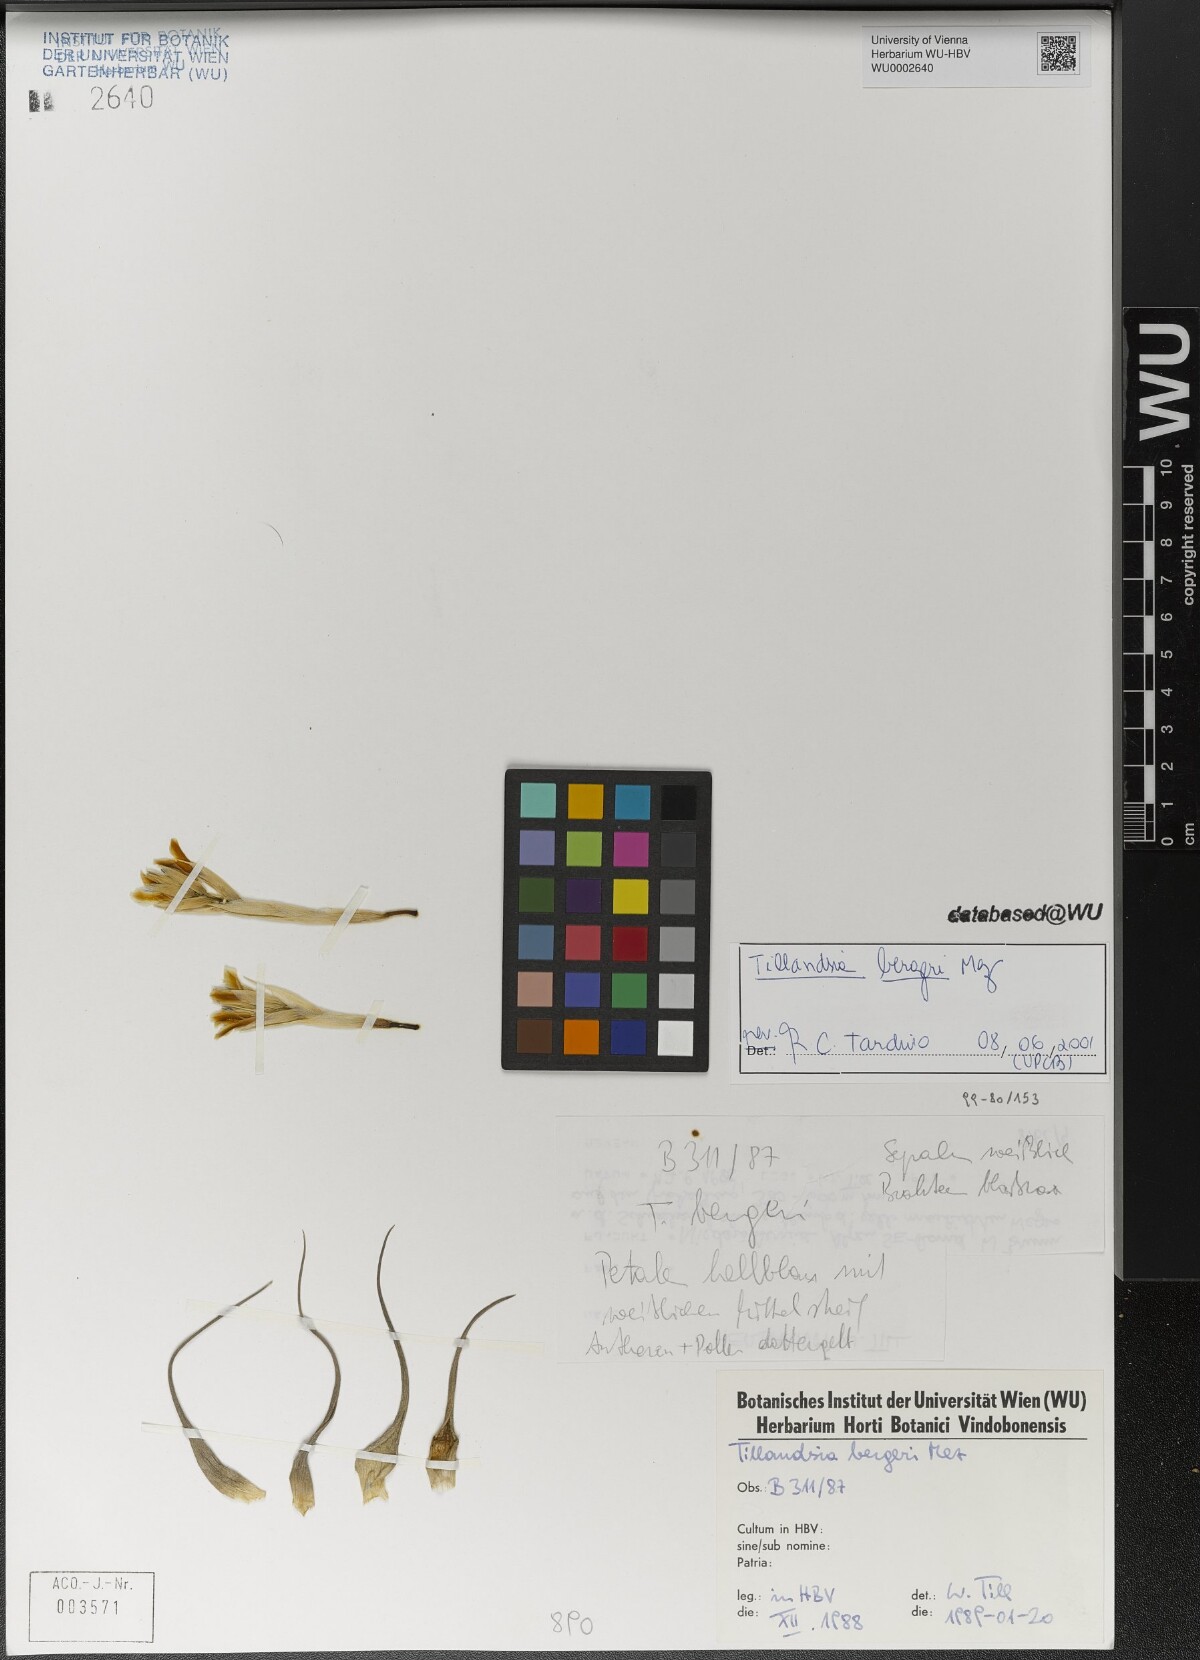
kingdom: Plantae
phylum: Tracheophyta
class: Liliopsida
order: Poales
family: Bromeliaceae
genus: Tillandsia
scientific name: Tillandsia bergeri
